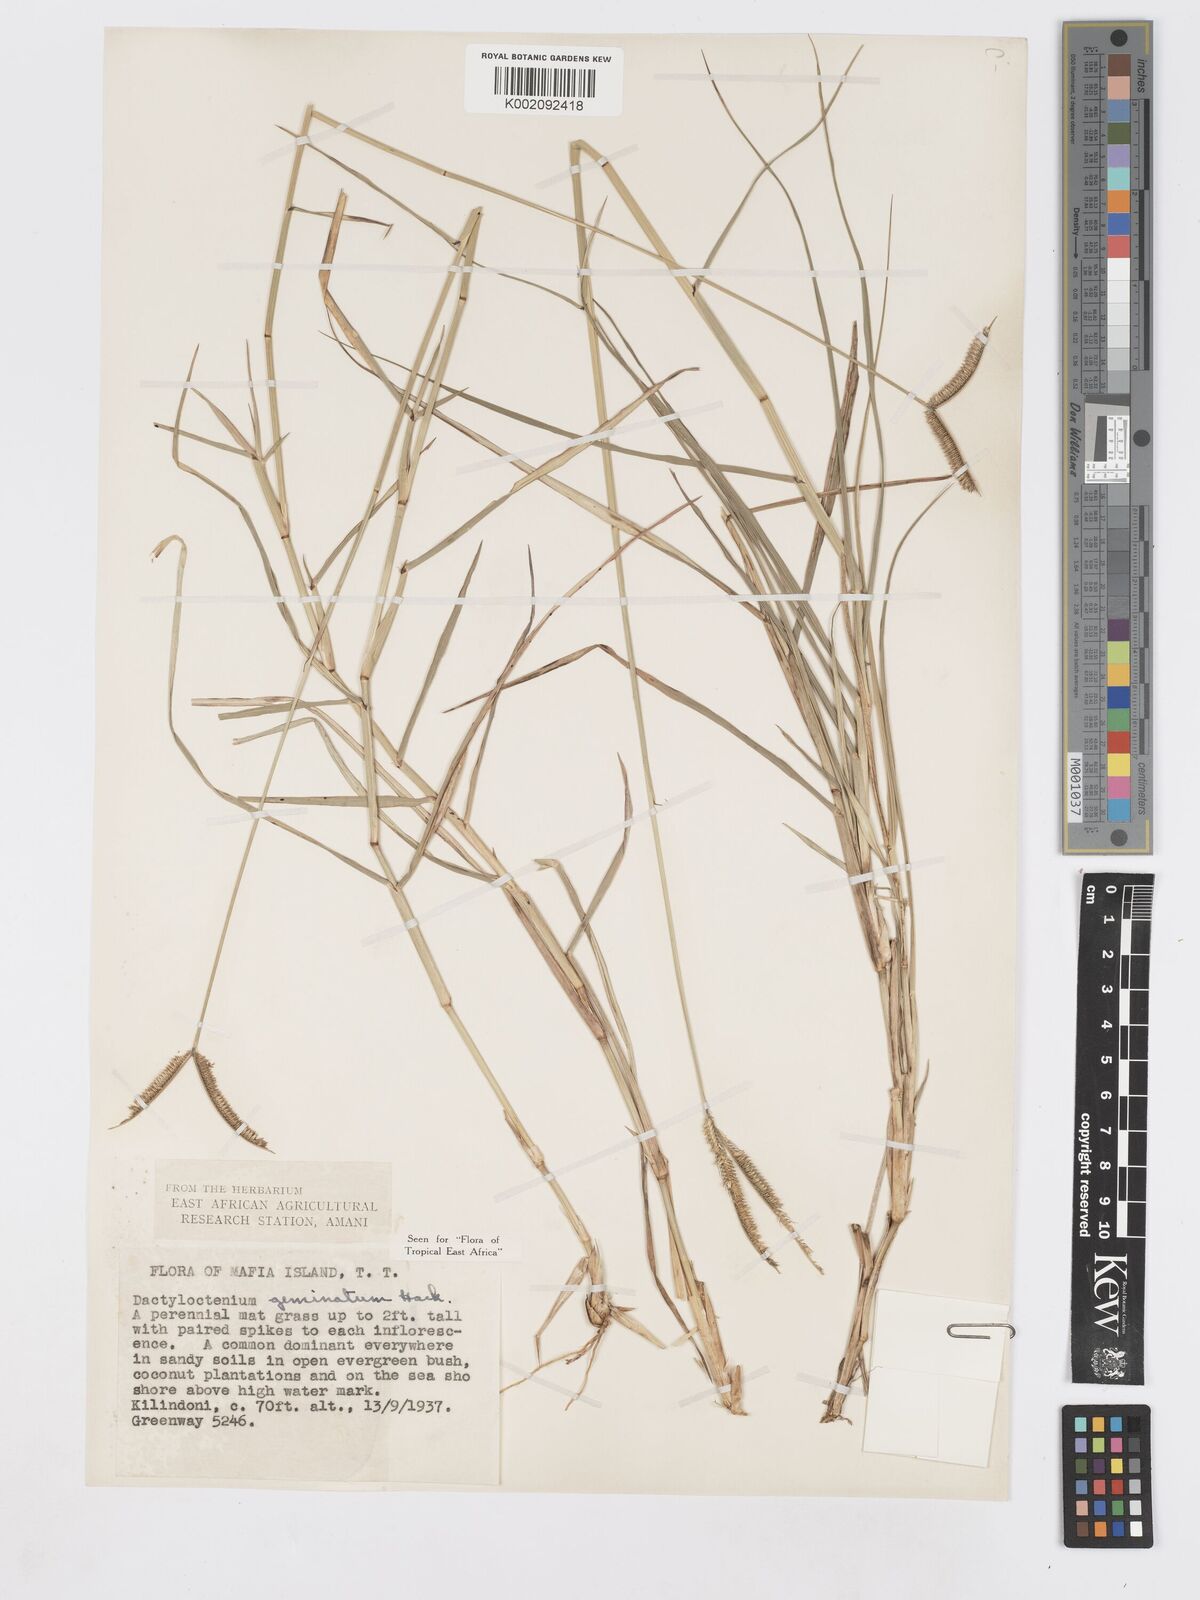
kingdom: Plantae
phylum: Tracheophyta
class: Liliopsida
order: Poales
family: Poaceae
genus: Dactyloctenium
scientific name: Dactyloctenium geminatum
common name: Crowsfoot grass
